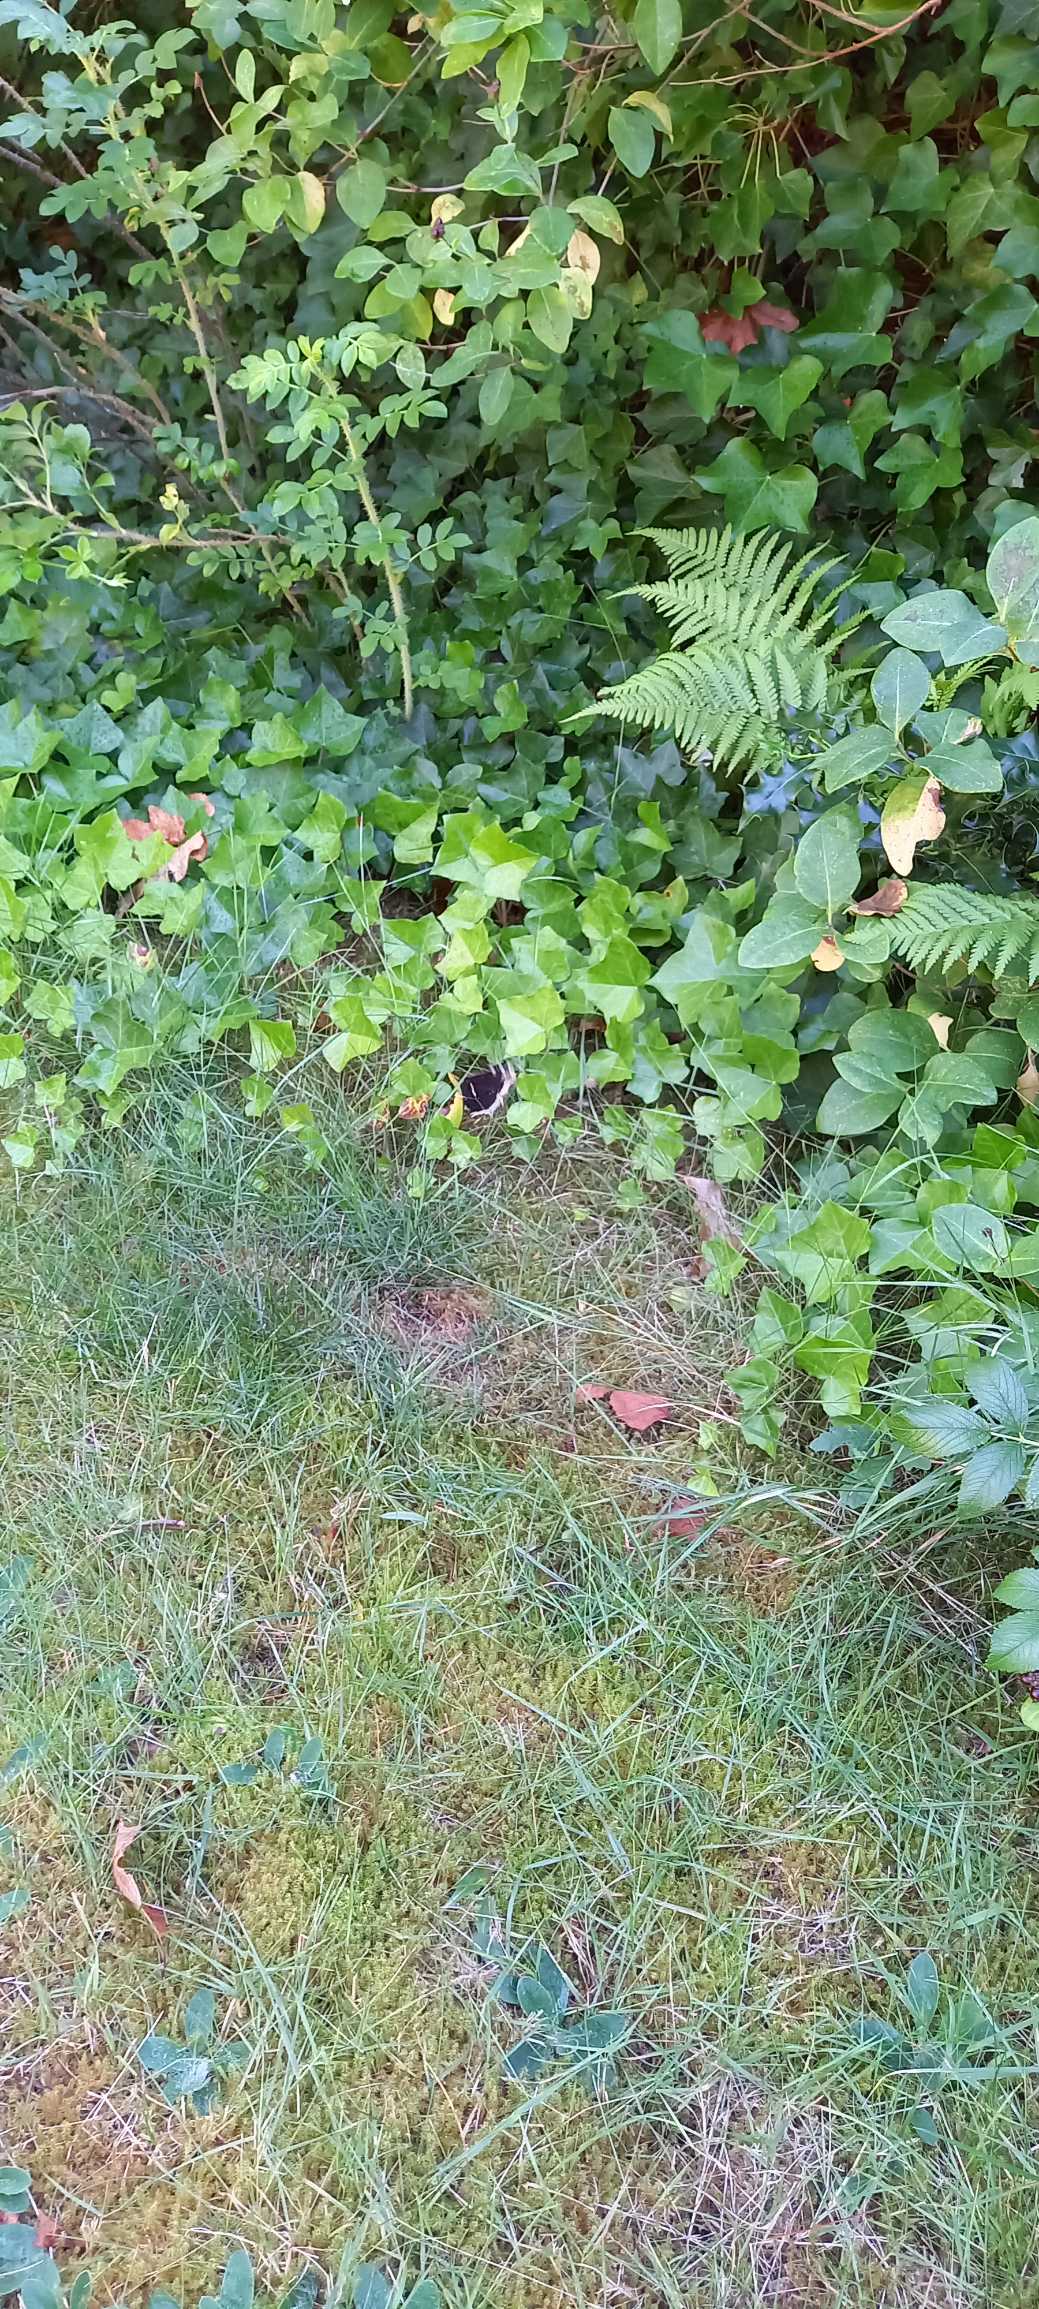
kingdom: Animalia
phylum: Arthropoda
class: Insecta
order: Lepidoptera
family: Nymphalidae
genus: Nymphalis
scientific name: Nymphalis antiopa
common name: Sørgekåbe
